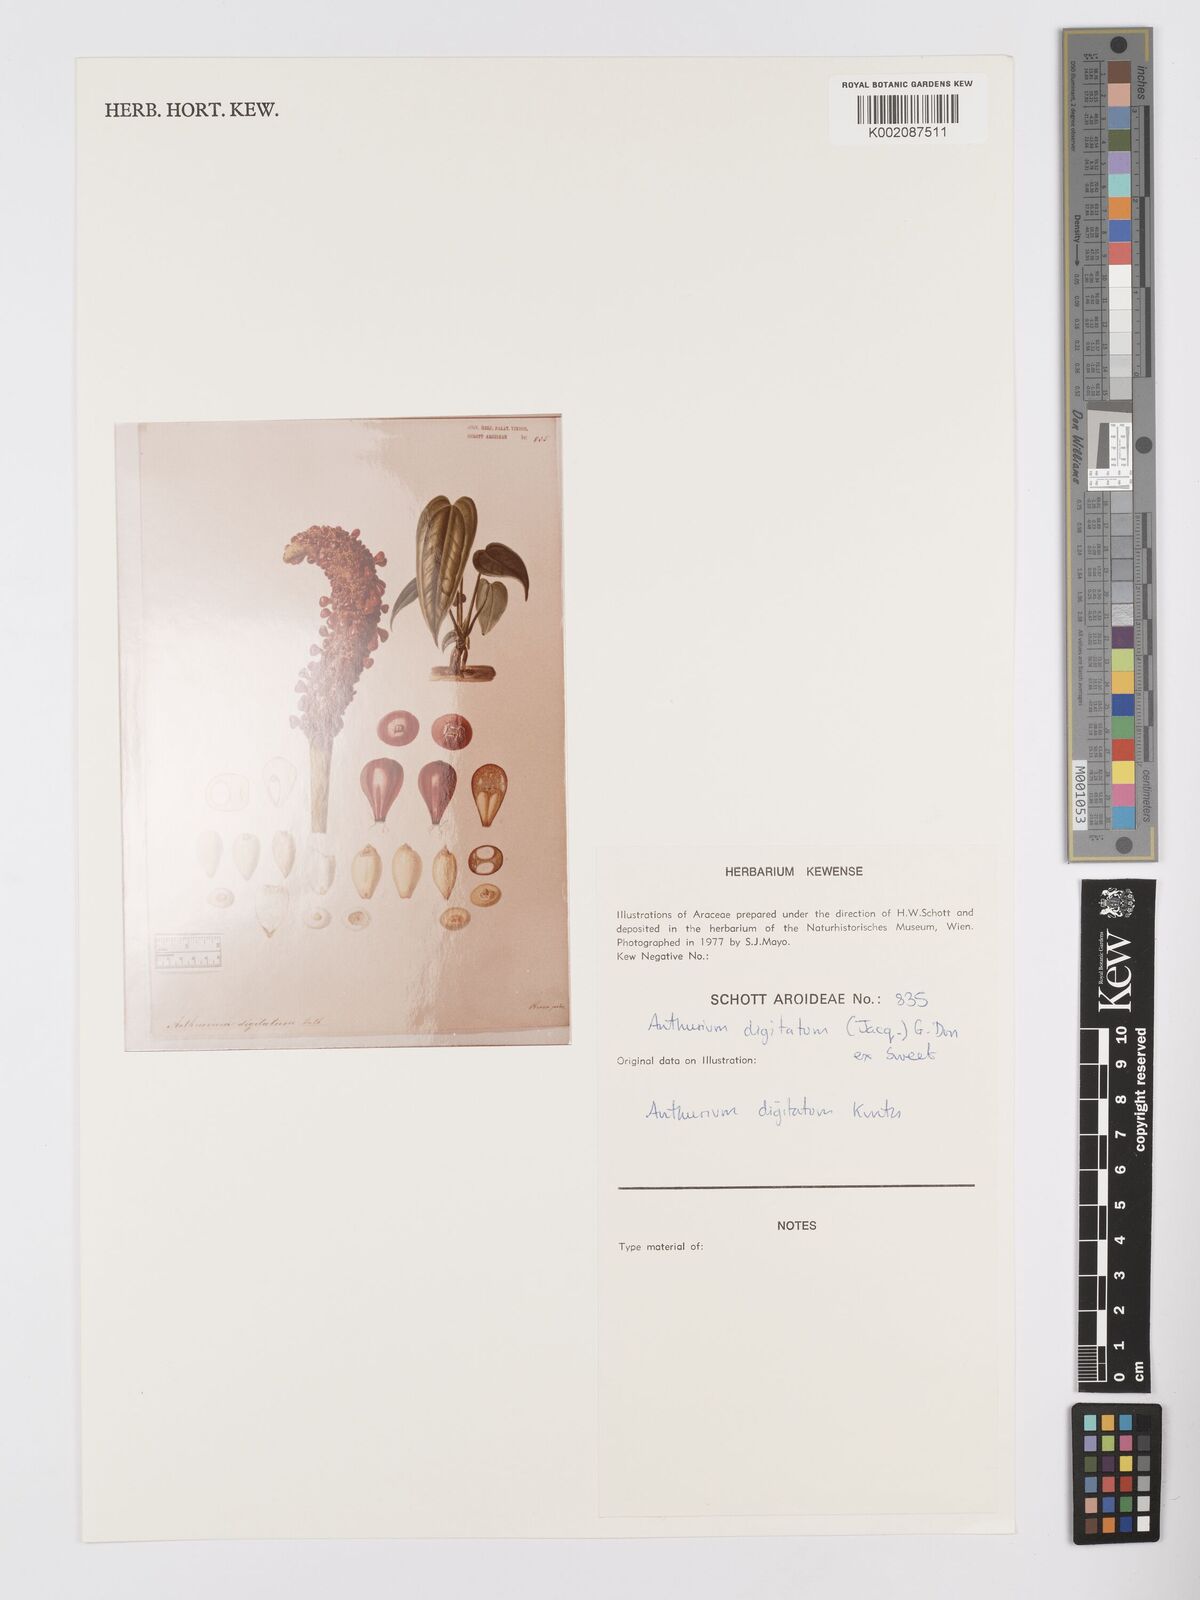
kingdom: Plantae
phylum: Tracheophyta
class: Liliopsida
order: Alismatales
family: Araceae
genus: Anthurium
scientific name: Anthurium digitatum
